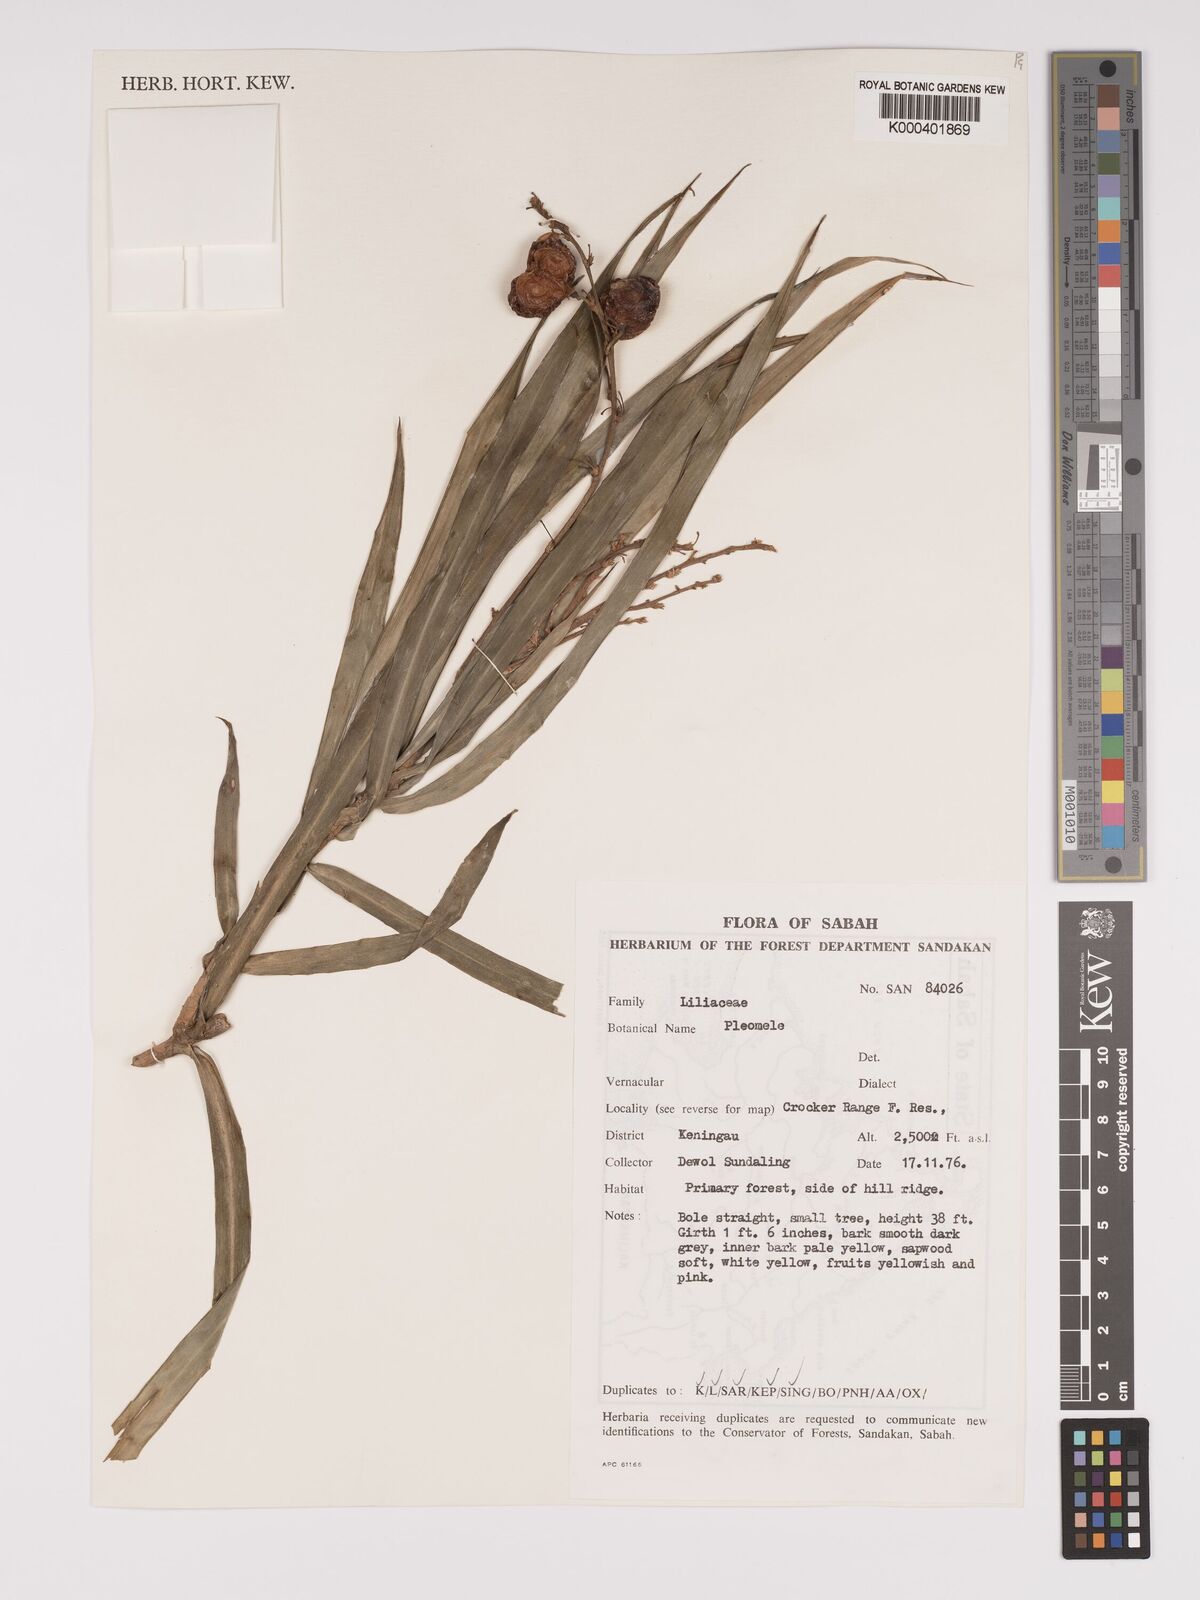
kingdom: Plantae
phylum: Tracheophyta
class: Liliopsida
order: Asparagales
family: Asparagaceae
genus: Dracaena
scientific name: Dracaena
